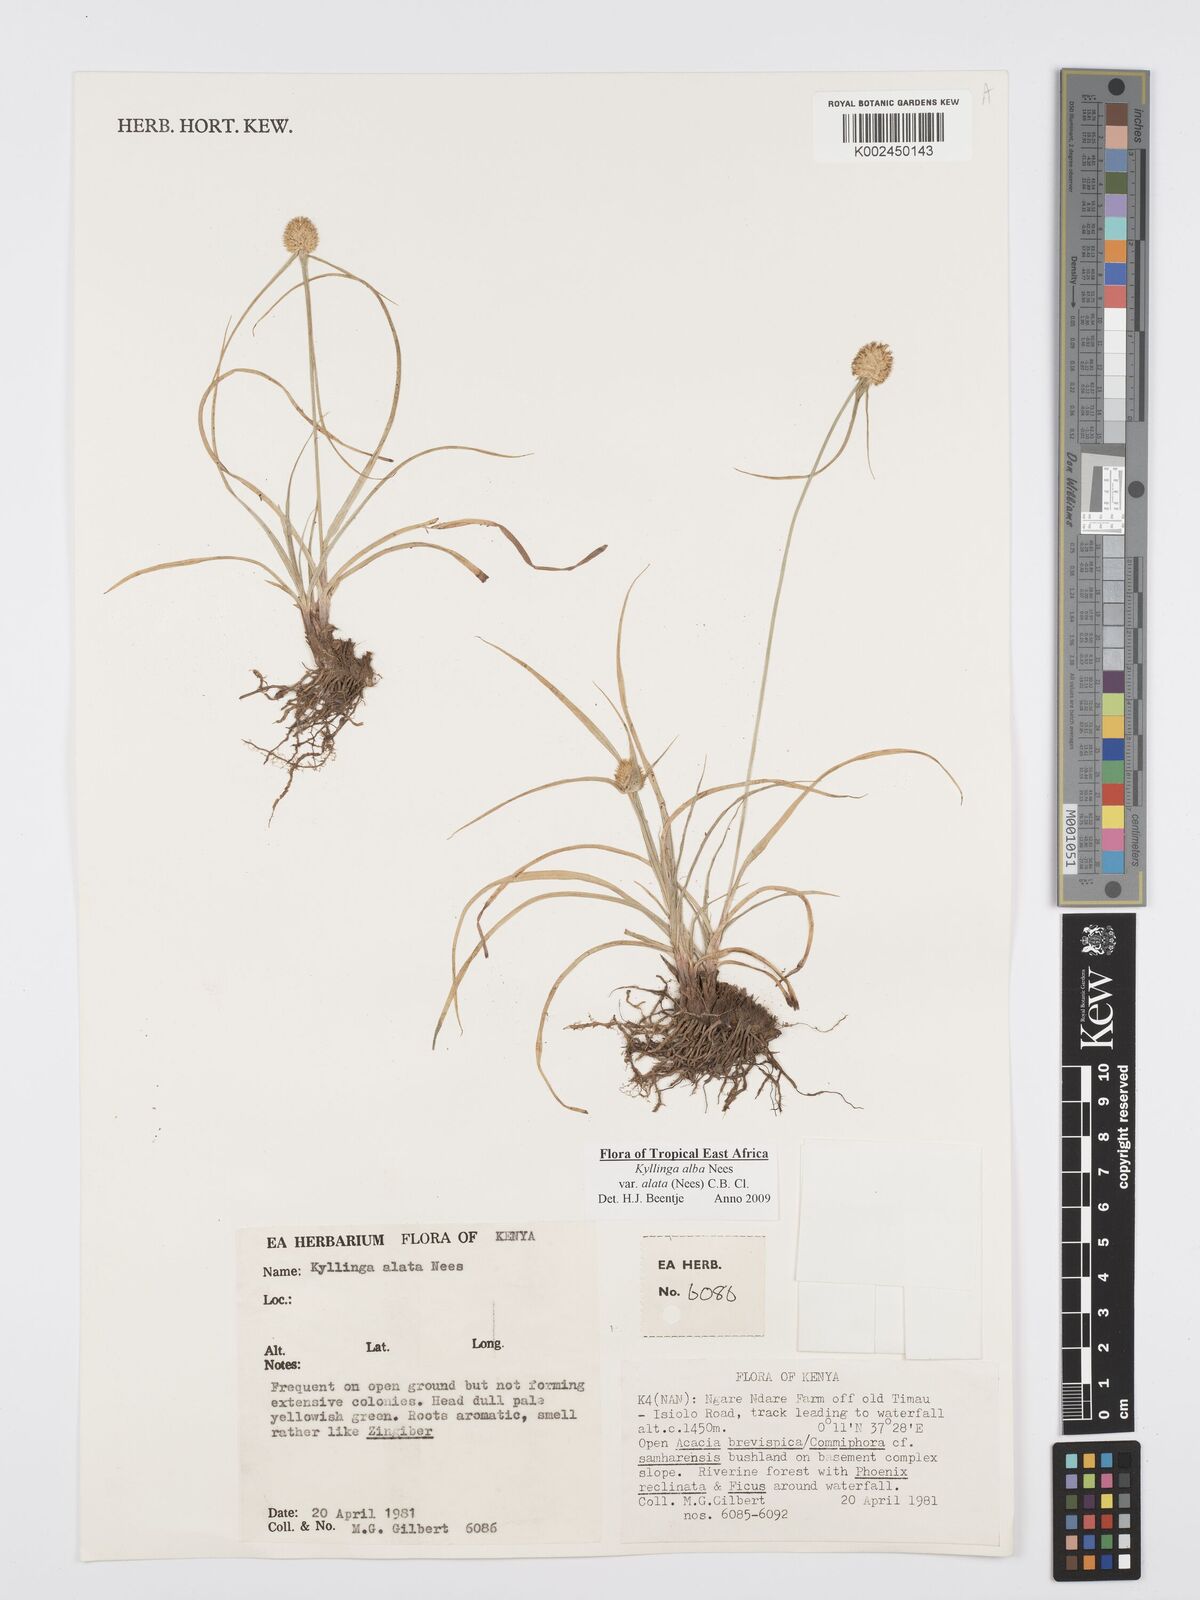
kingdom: Plantae
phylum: Tracheophyta
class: Liliopsida
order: Poales
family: Cyperaceae
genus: Cyperus
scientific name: Cyperus alatus
